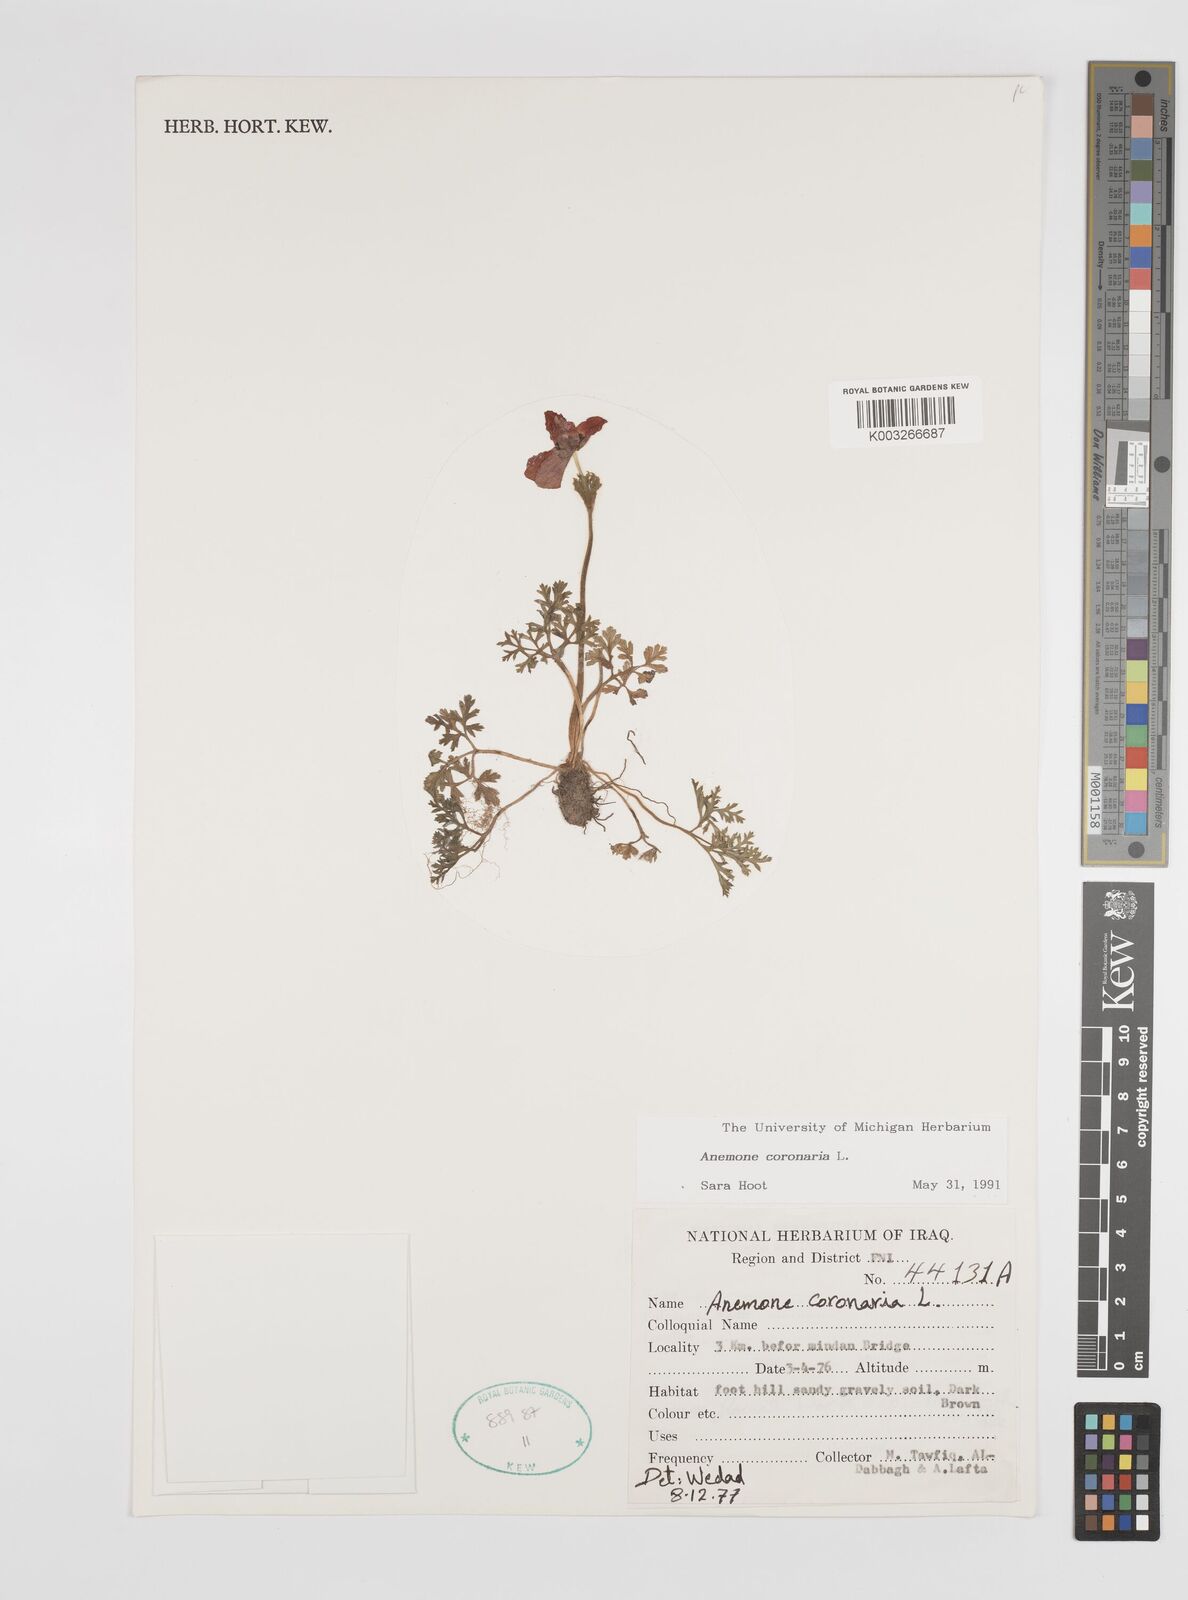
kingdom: Plantae
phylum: Tracheophyta
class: Magnoliopsida
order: Ranunculales
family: Ranunculaceae
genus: Anemone
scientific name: Anemone coronaria
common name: Poppy anemone
